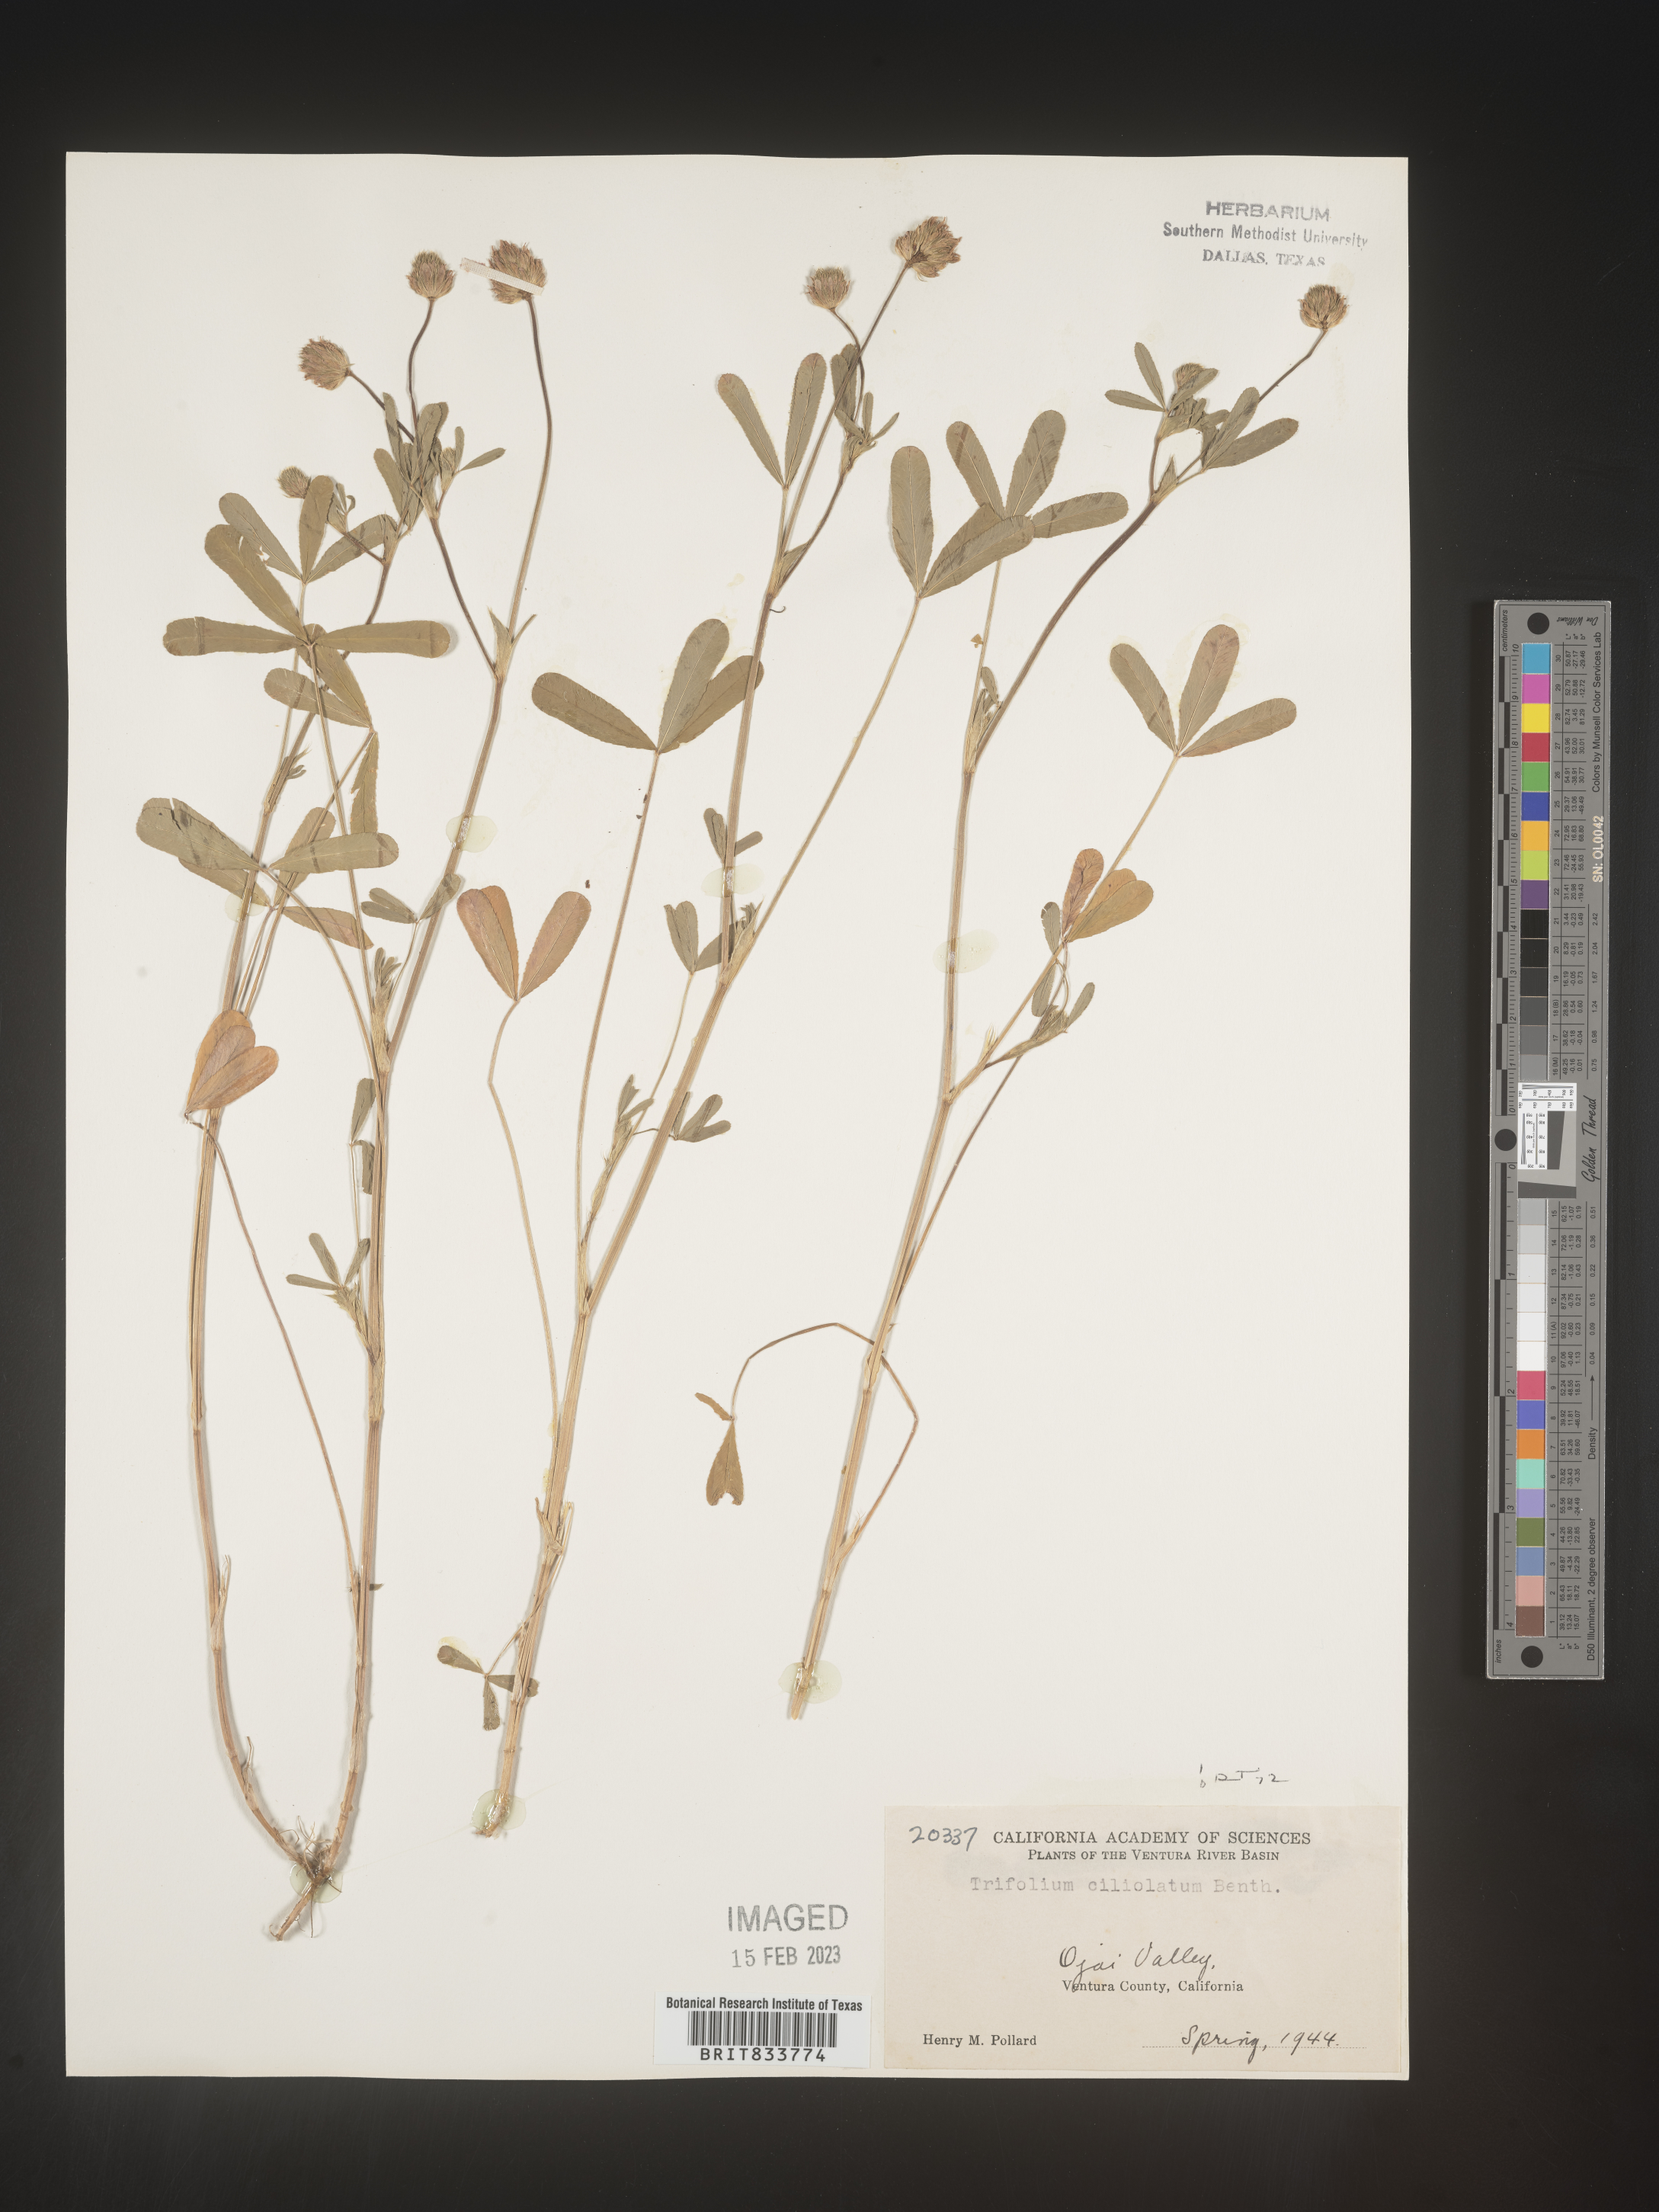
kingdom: Plantae
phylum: Tracheophyta
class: Magnoliopsida
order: Fabales
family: Fabaceae
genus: Trifolium
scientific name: Trifolium
